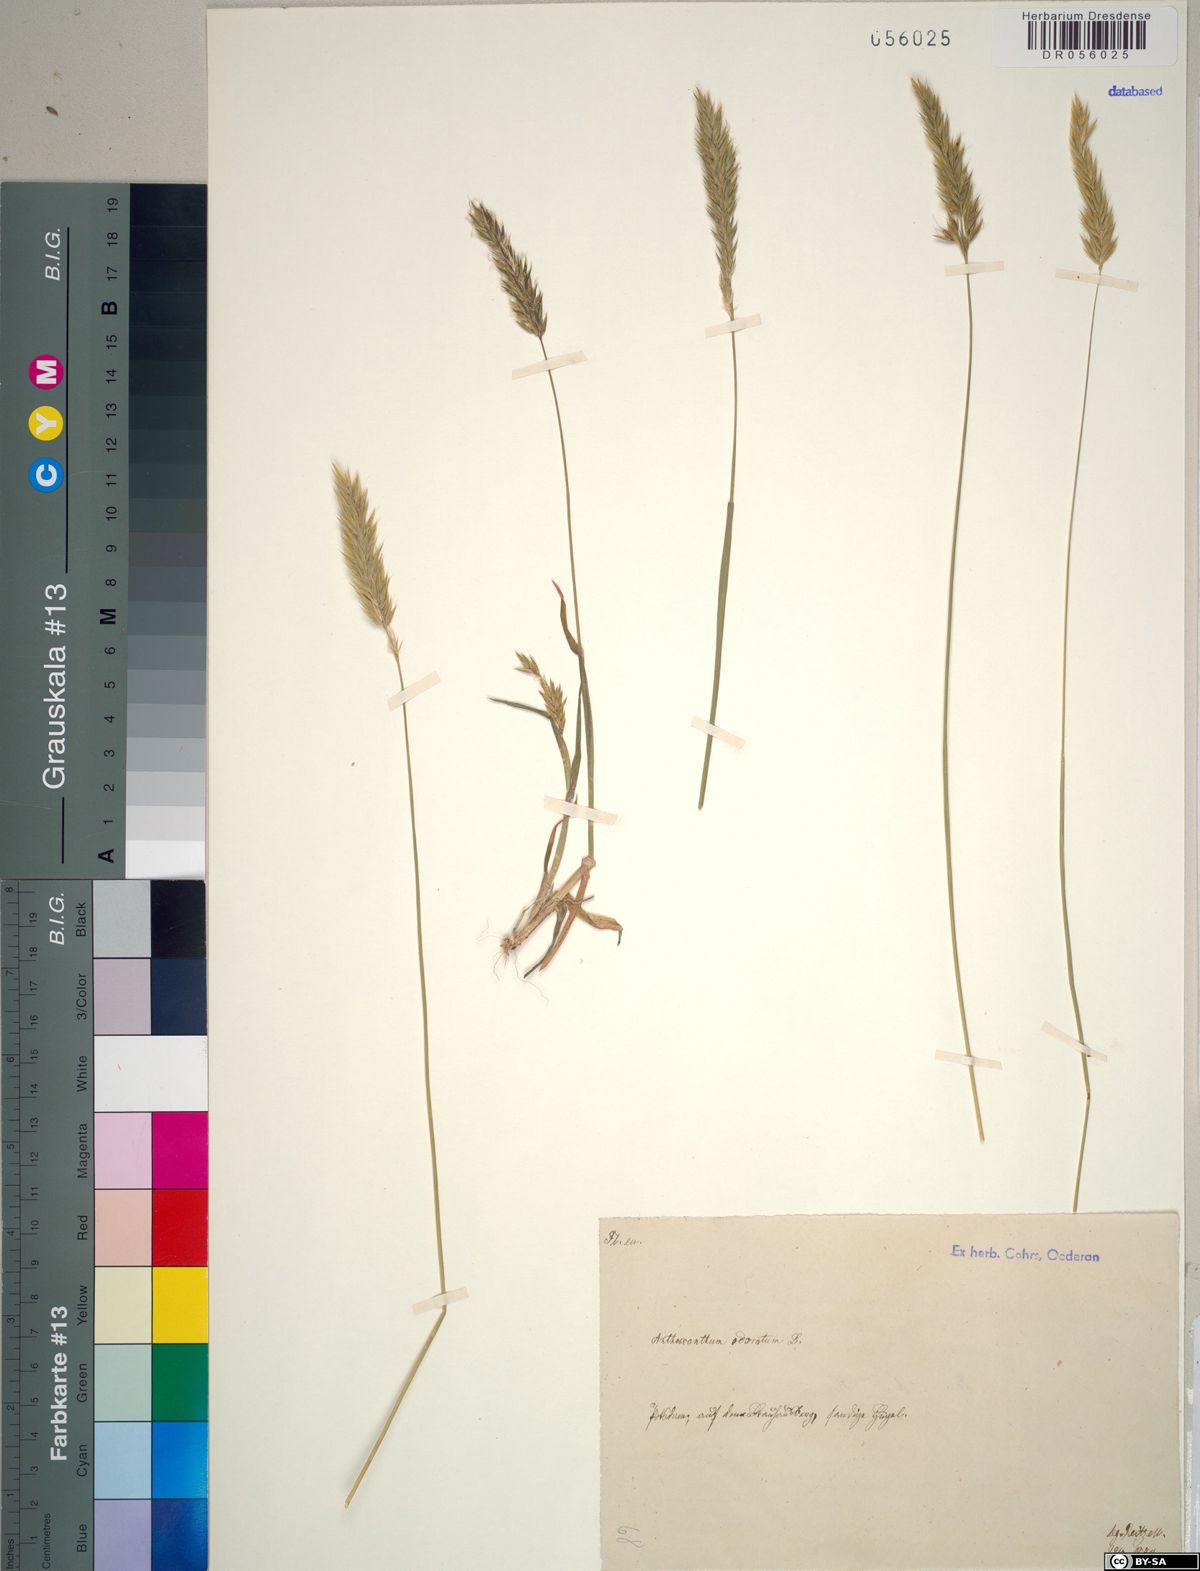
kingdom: Plantae
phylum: Tracheophyta
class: Liliopsida
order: Poales
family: Poaceae
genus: Anthoxanthum
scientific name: Anthoxanthum odoratum
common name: Sweet vernalgrass
